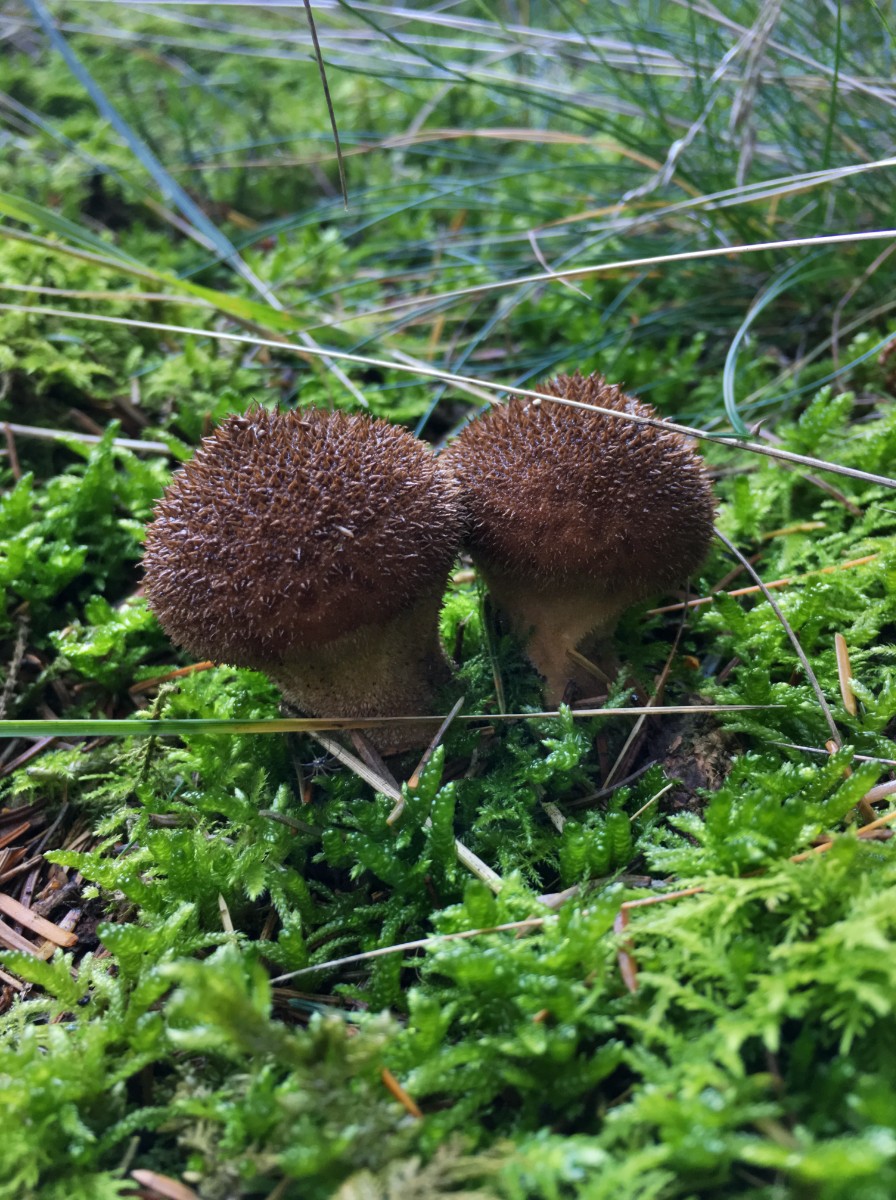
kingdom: Fungi
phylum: Basidiomycota
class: Agaricomycetes
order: Agaricales
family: Lycoperdaceae
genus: Lycoperdon
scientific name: Lycoperdon nigrescens
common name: sortagtig støvbold
